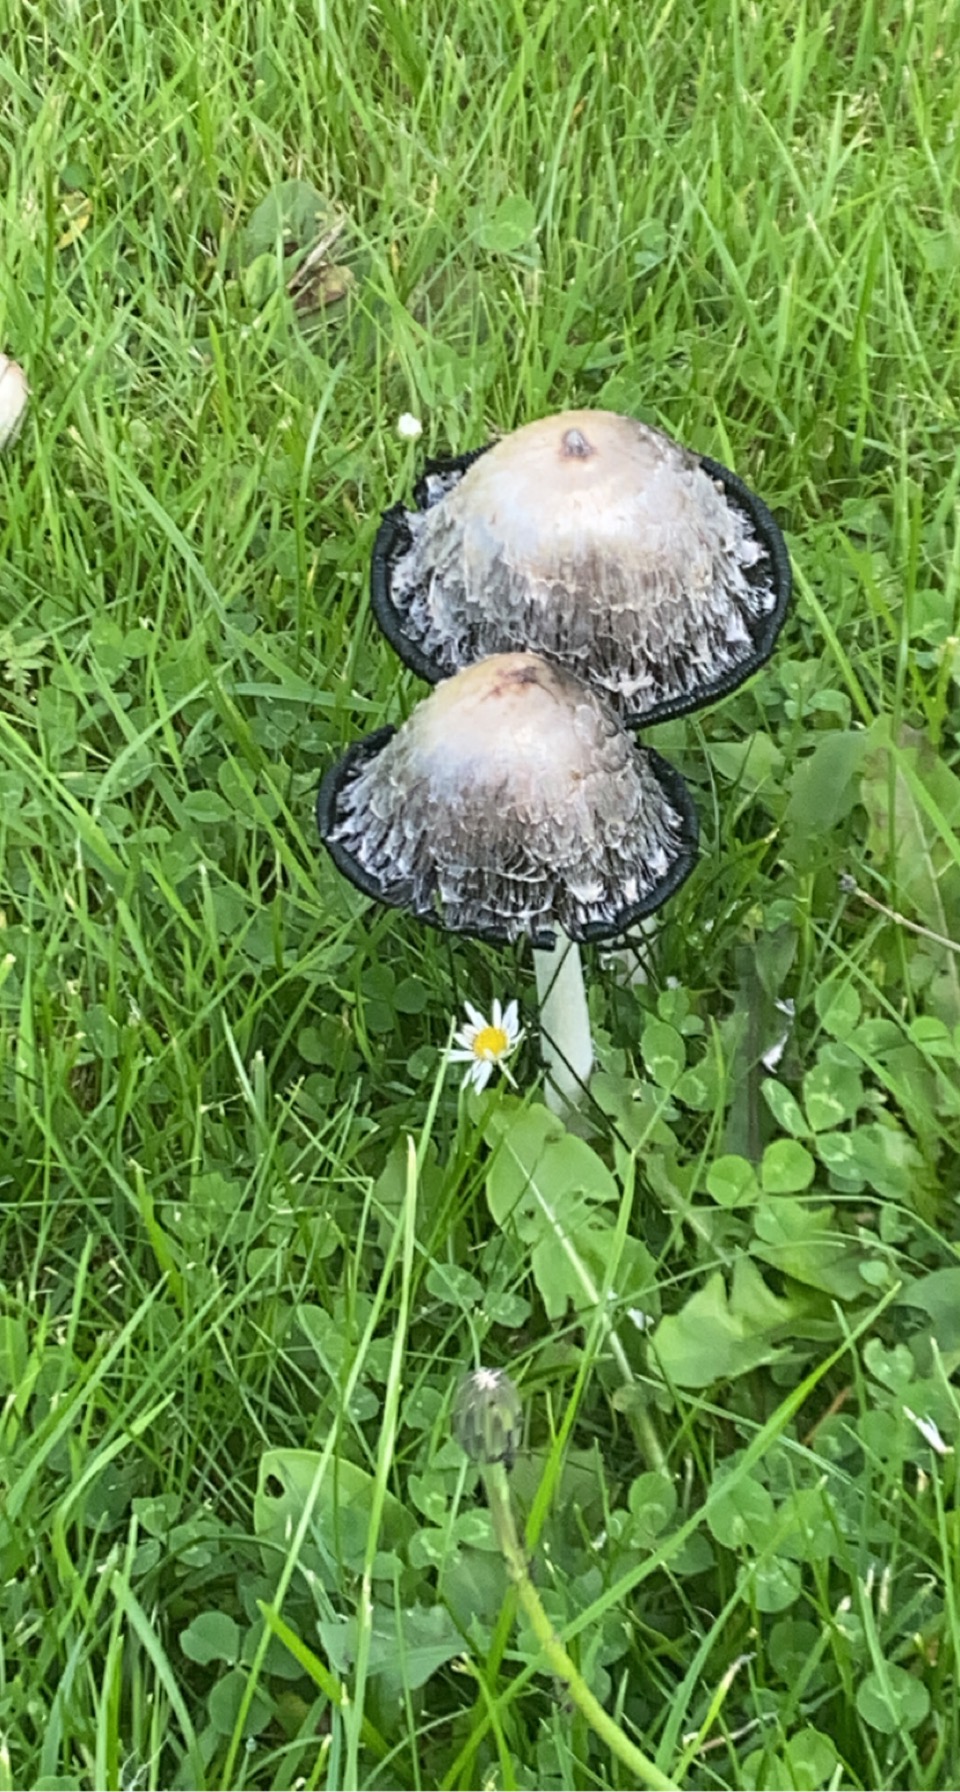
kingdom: Fungi
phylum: Basidiomycota
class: Agaricomycetes
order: Agaricales
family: Agaricaceae
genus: Coprinus
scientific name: Coprinus comatus
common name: stor parykhat
